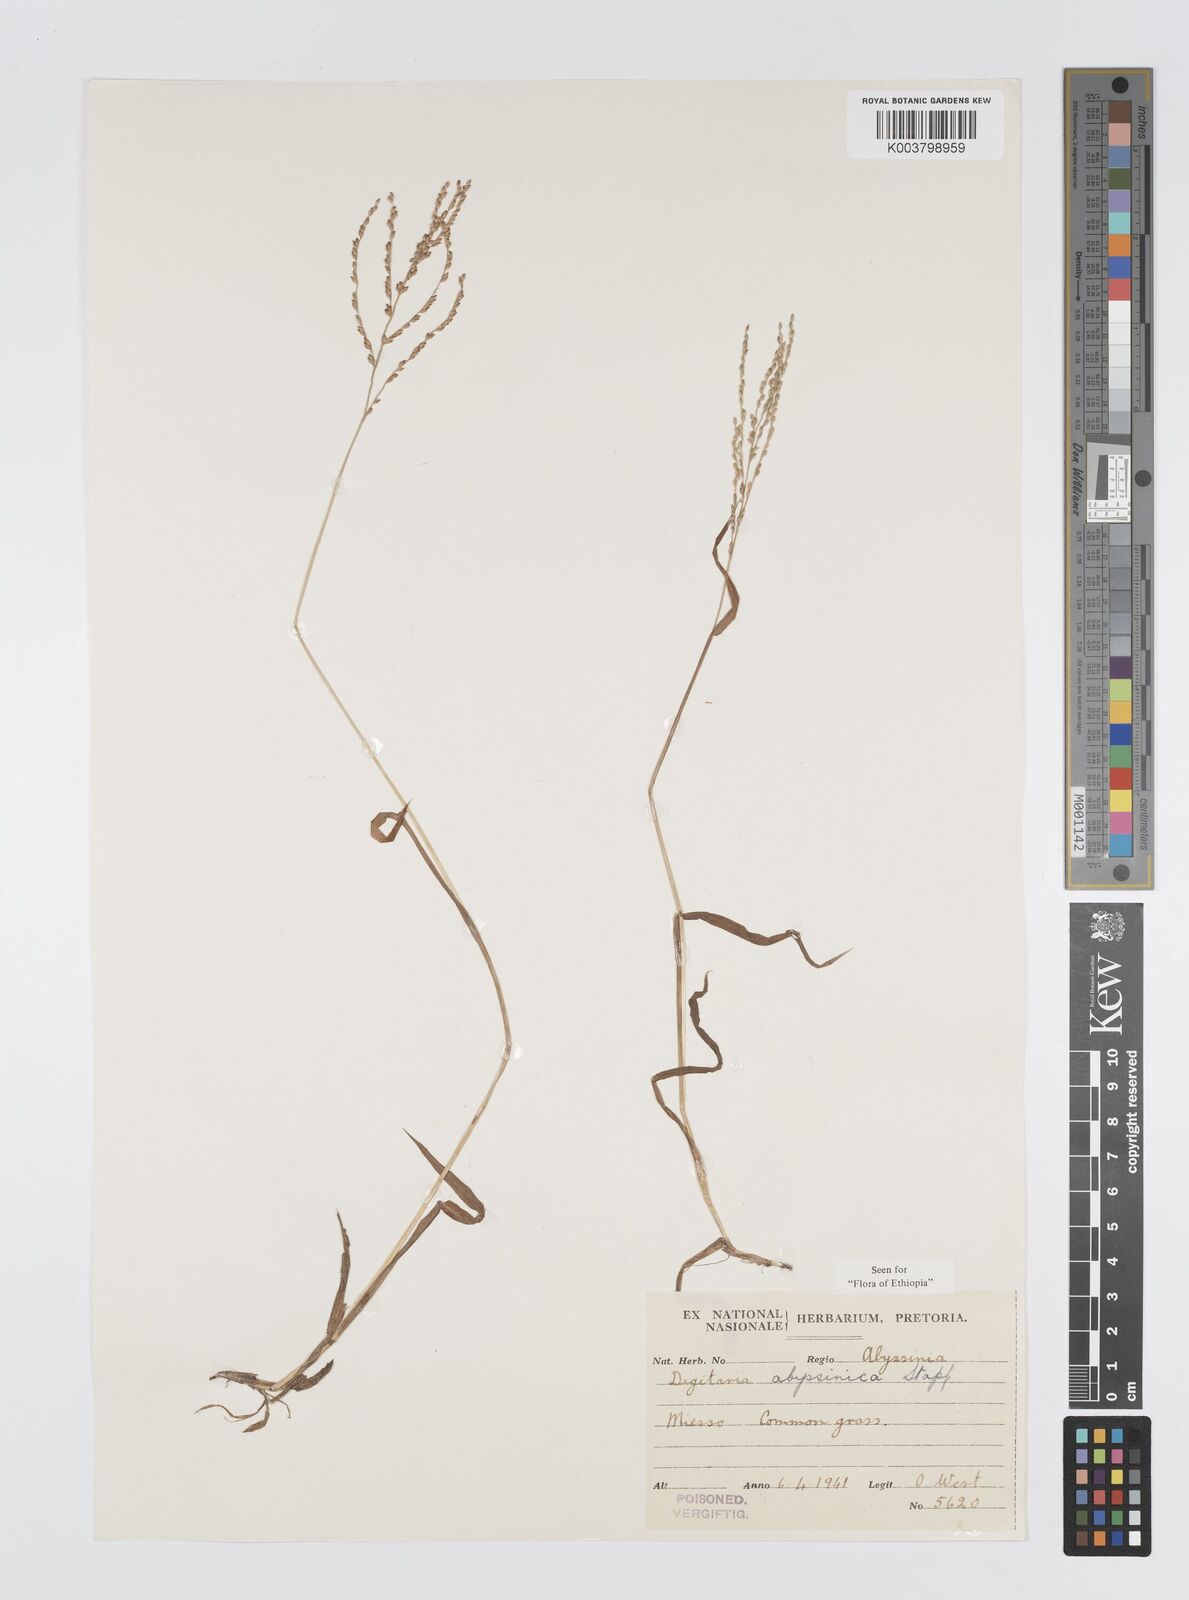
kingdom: Plantae
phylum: Tracheophyta
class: Liliopsida
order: Poales
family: Poaceae
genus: Digitaria
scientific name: Digitaria abyssinica
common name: African couchgrass
